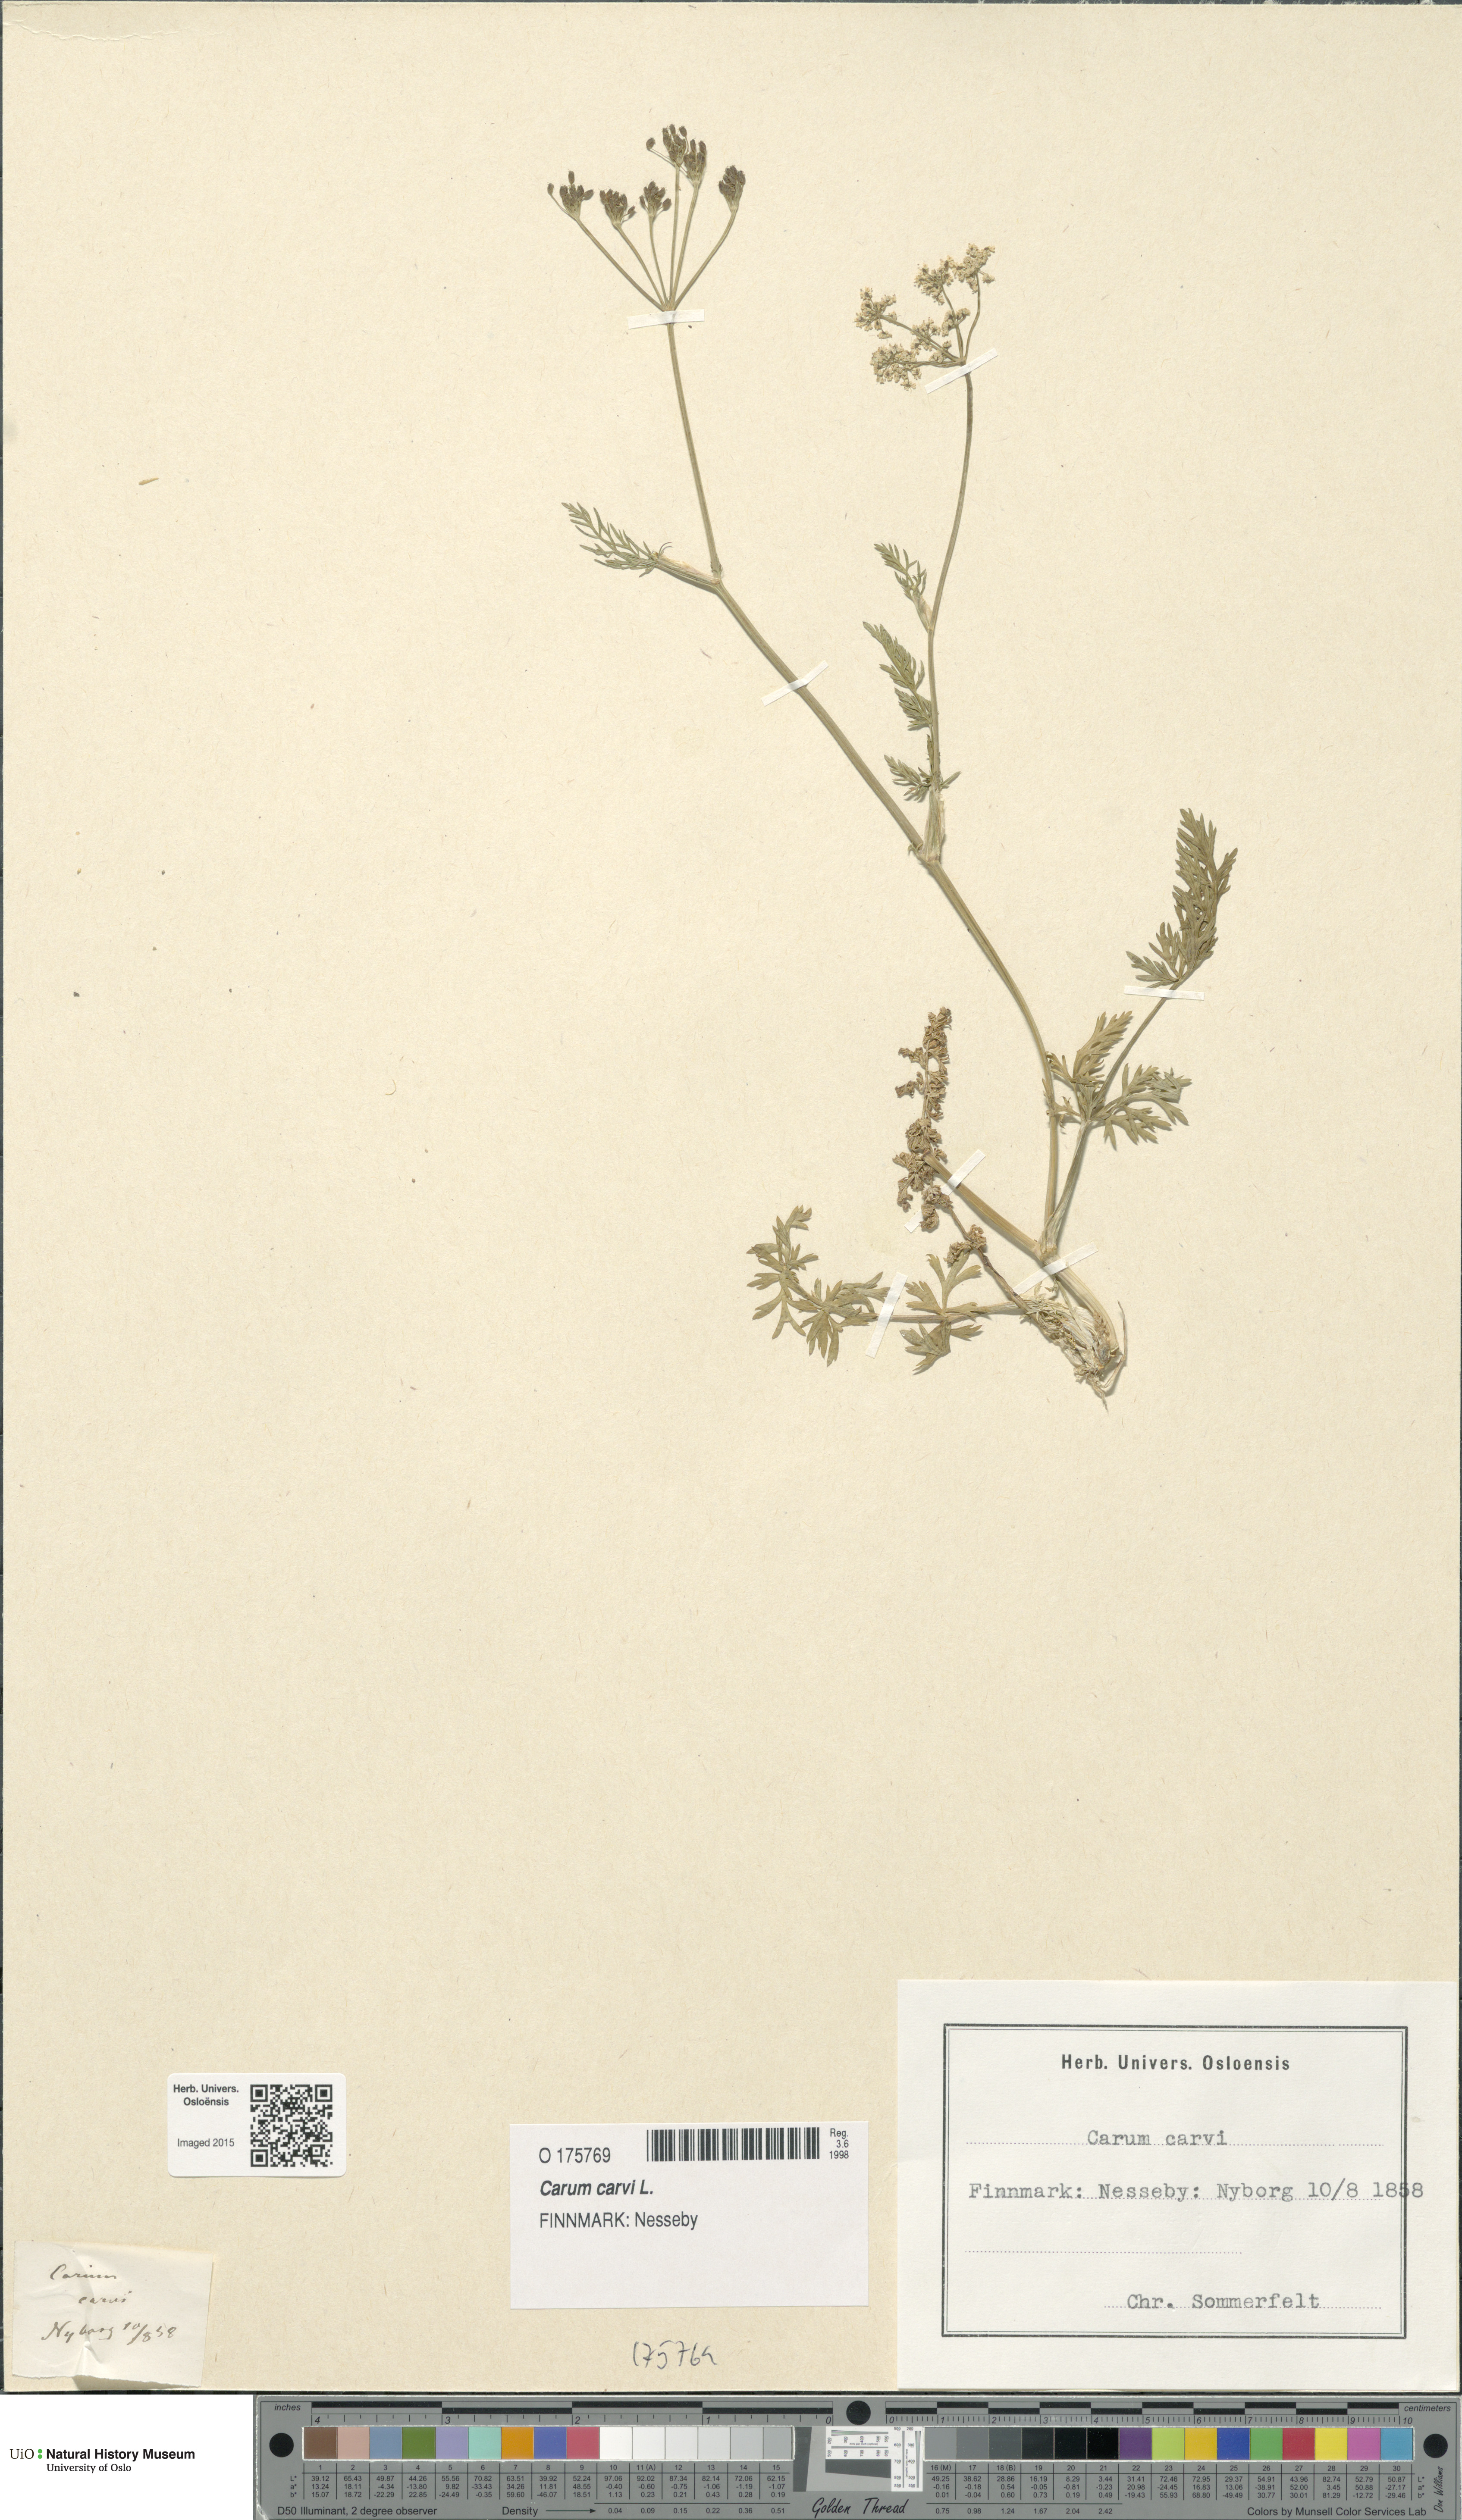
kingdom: Plantae
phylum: Tracheophyta
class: Magnoliopsida
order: Apiales
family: Apiaceae
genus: Carum
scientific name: Carum carvi
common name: Caraway
